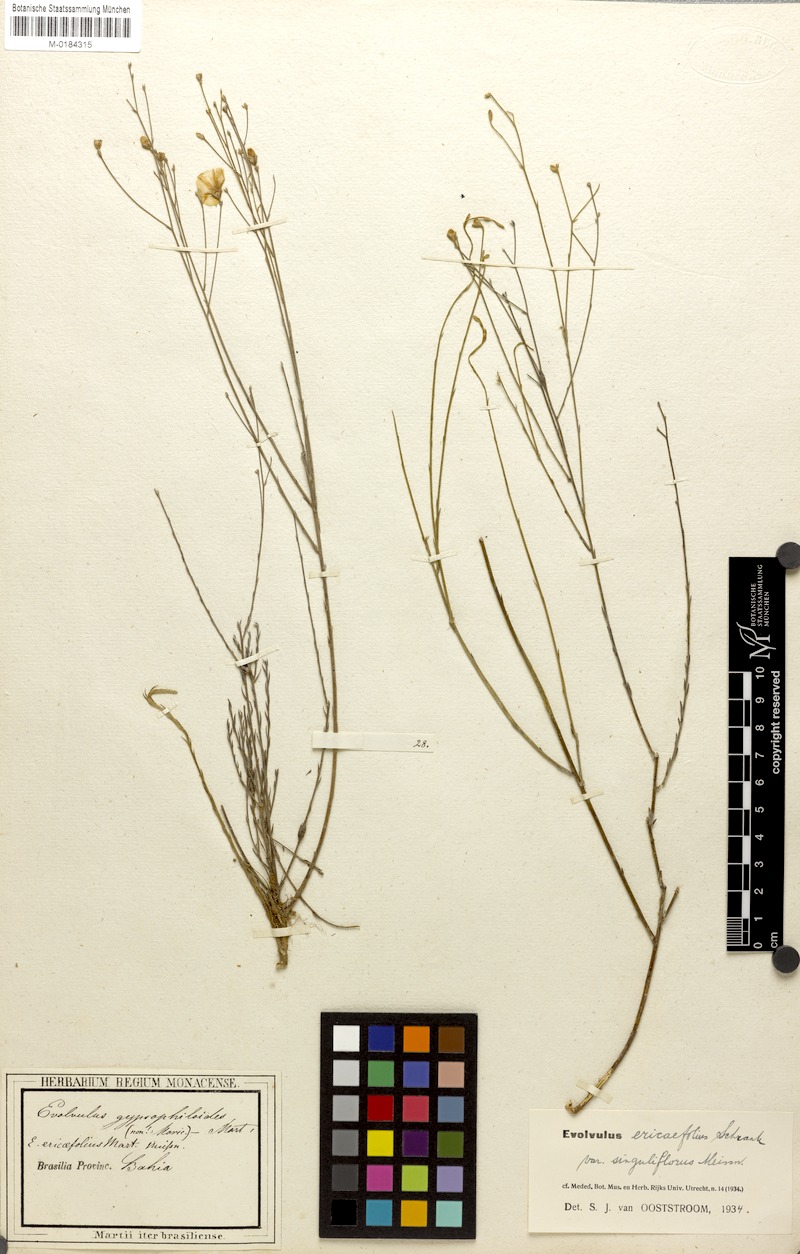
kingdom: Plantae
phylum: Tracheophyta
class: Magnoliopsida
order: Solanales
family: Convolvulaceae
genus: Evolvulus
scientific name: Evolvulus ericifolius
